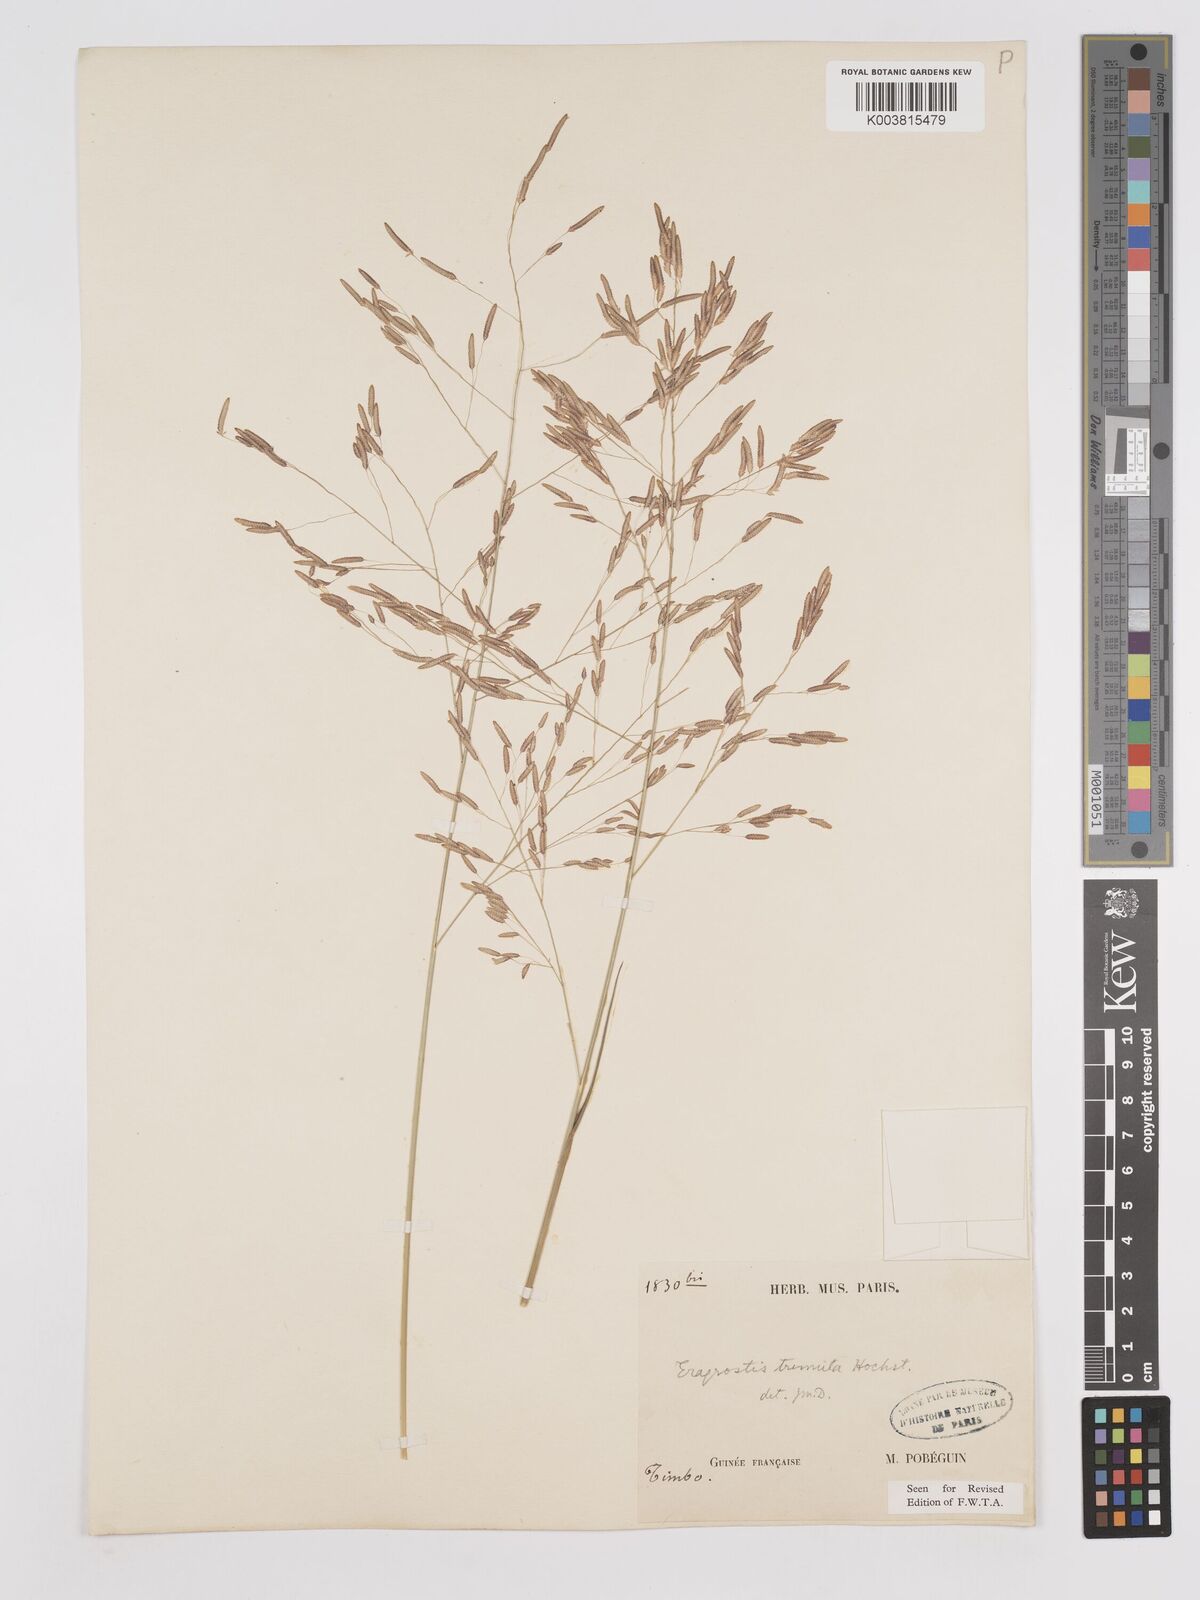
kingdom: Plantae
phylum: Tracheophyta
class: Liliopsida
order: Poales
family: Poaceae
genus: Eragrostis
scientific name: Eragrostis tremula
